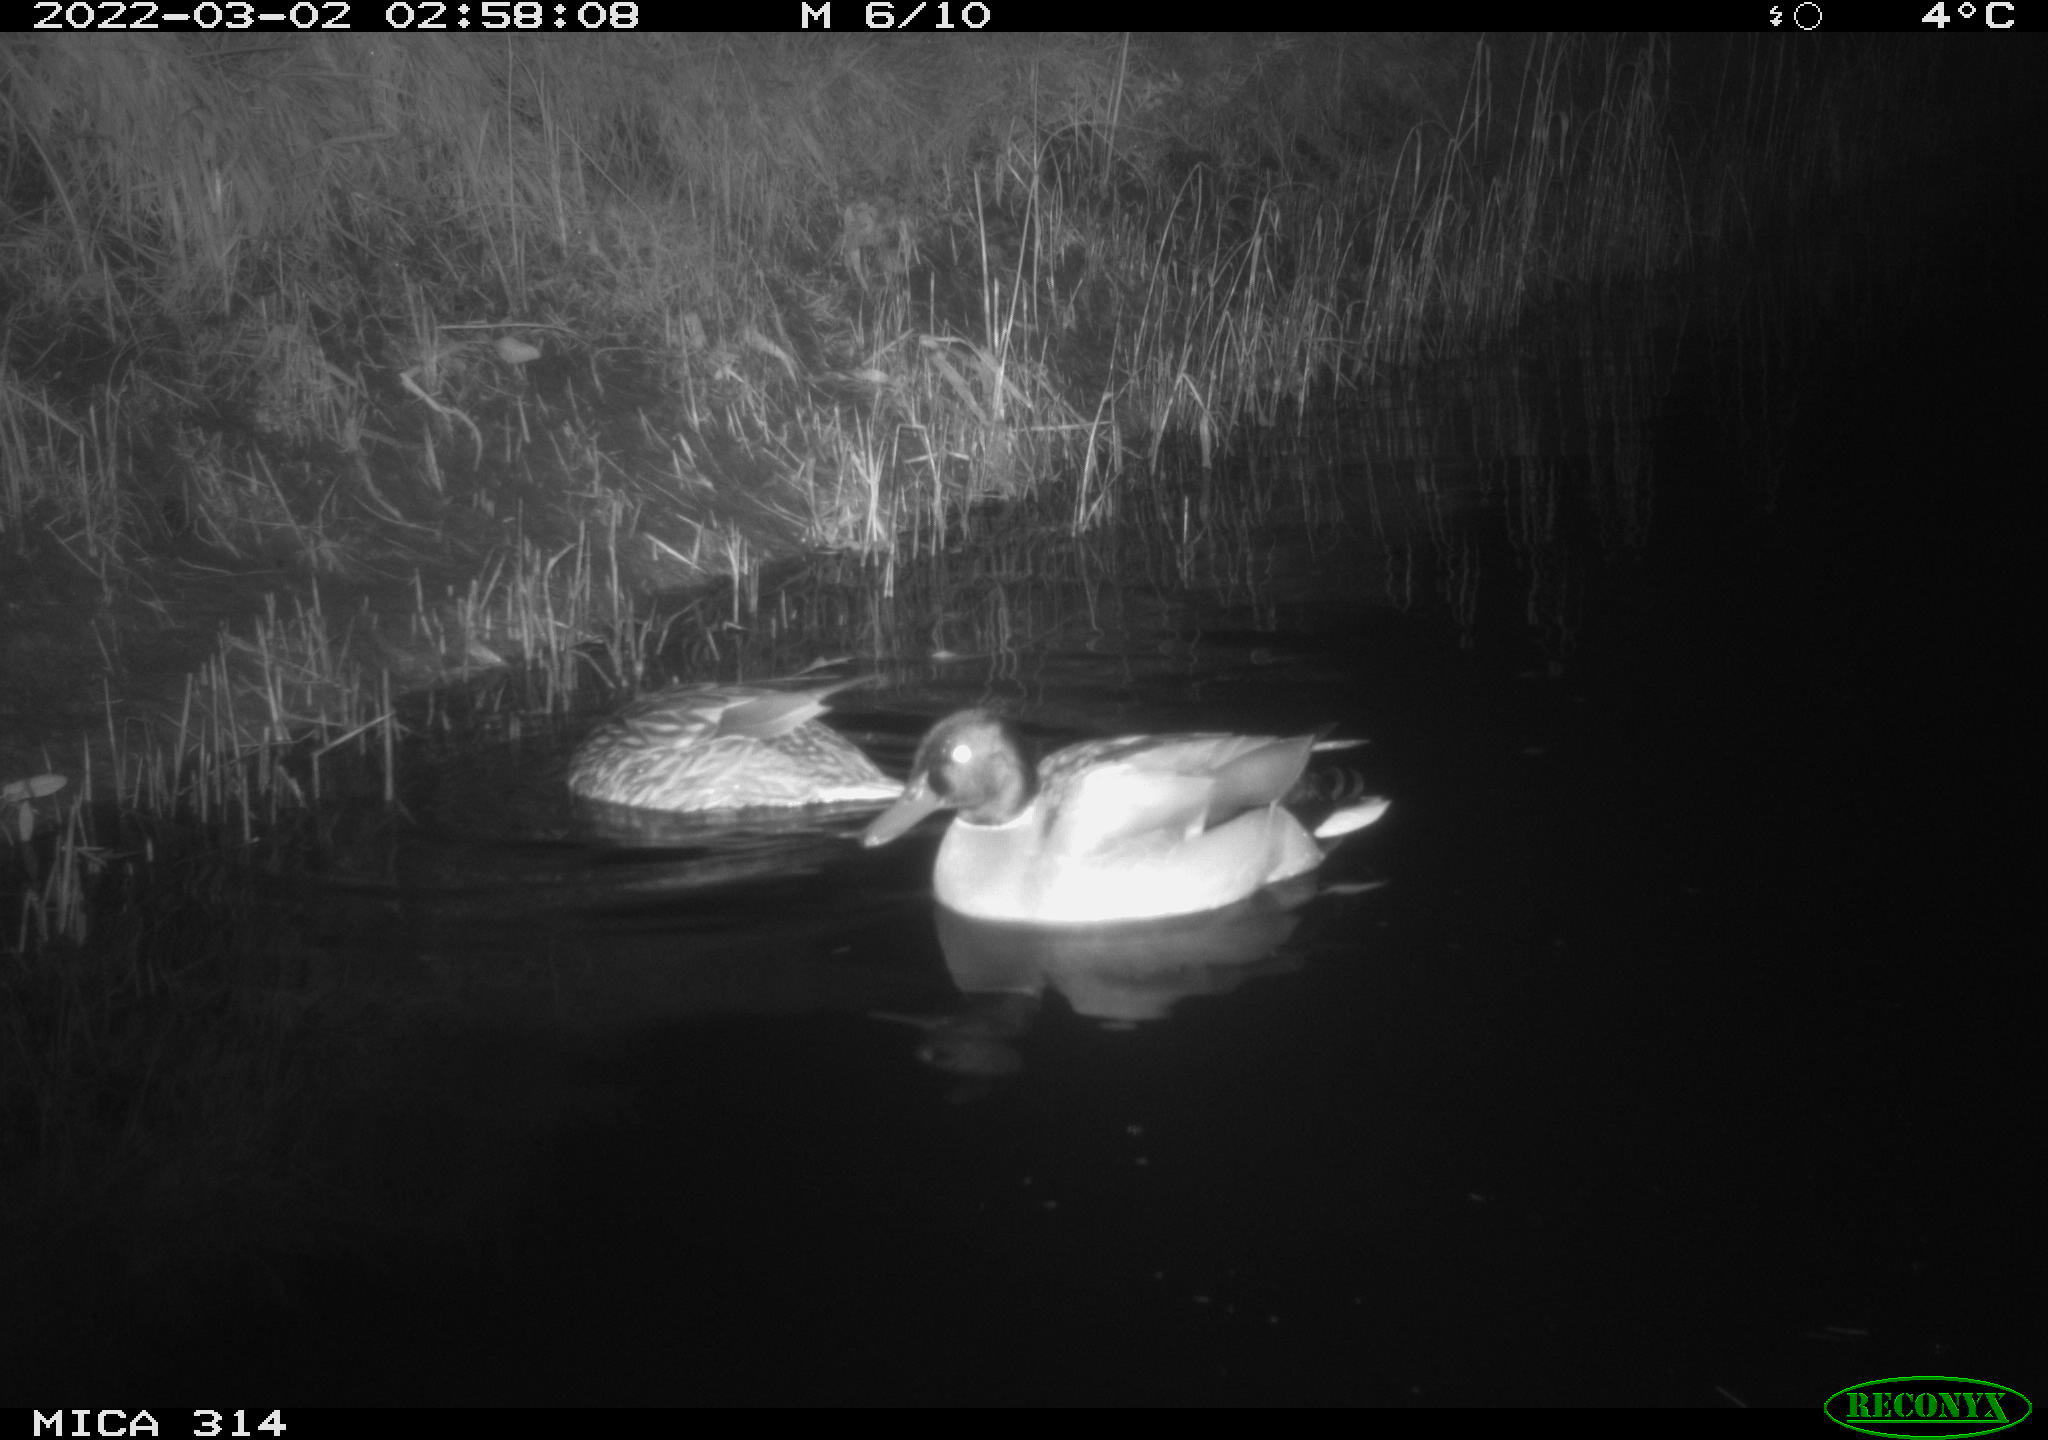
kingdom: Animalia
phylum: Chordata
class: Aves
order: Anseriformes
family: Anatidae
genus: Anas
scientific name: Anas platyrhynchos
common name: Mallard
